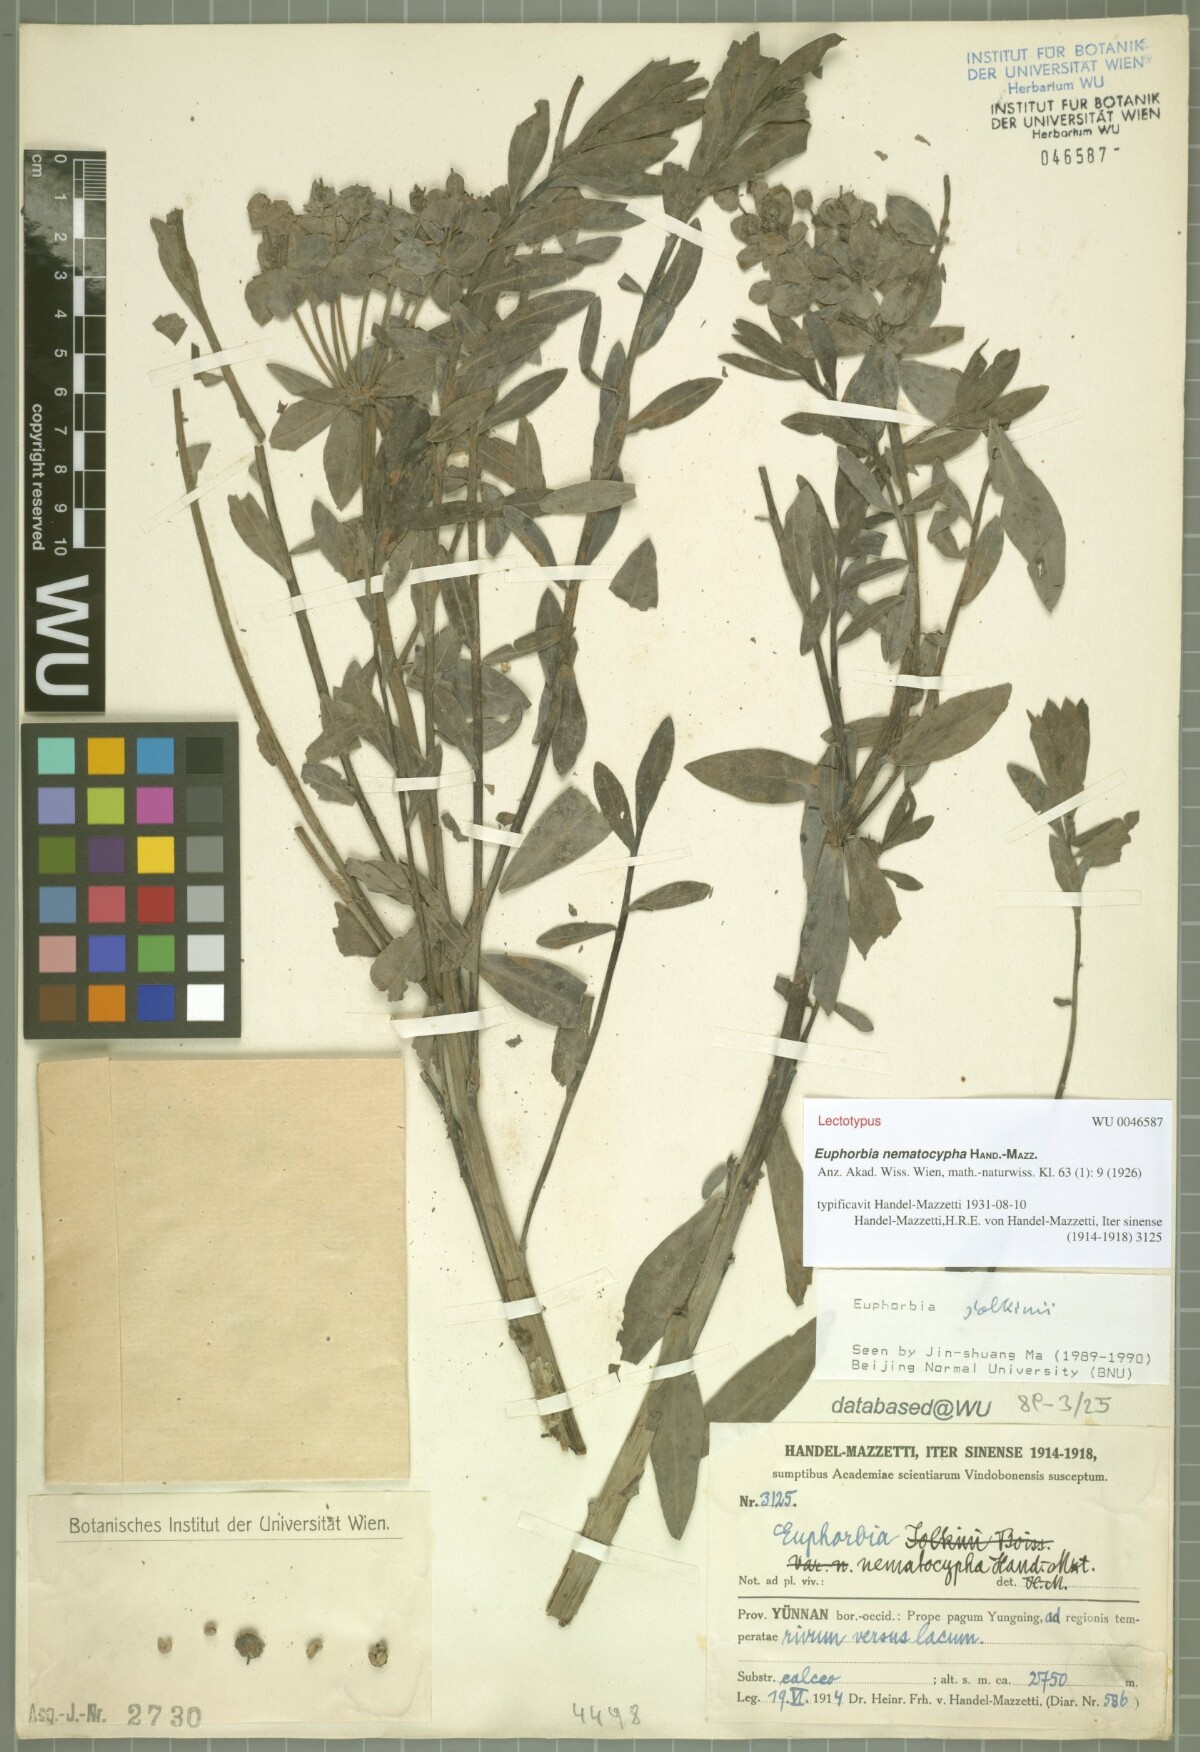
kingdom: Plantae
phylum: Tracheophyta
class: Magnoliopsida
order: Malpighiales
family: Euphorbiaceae
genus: Euphorbia
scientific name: Euphorbia jolkinii
